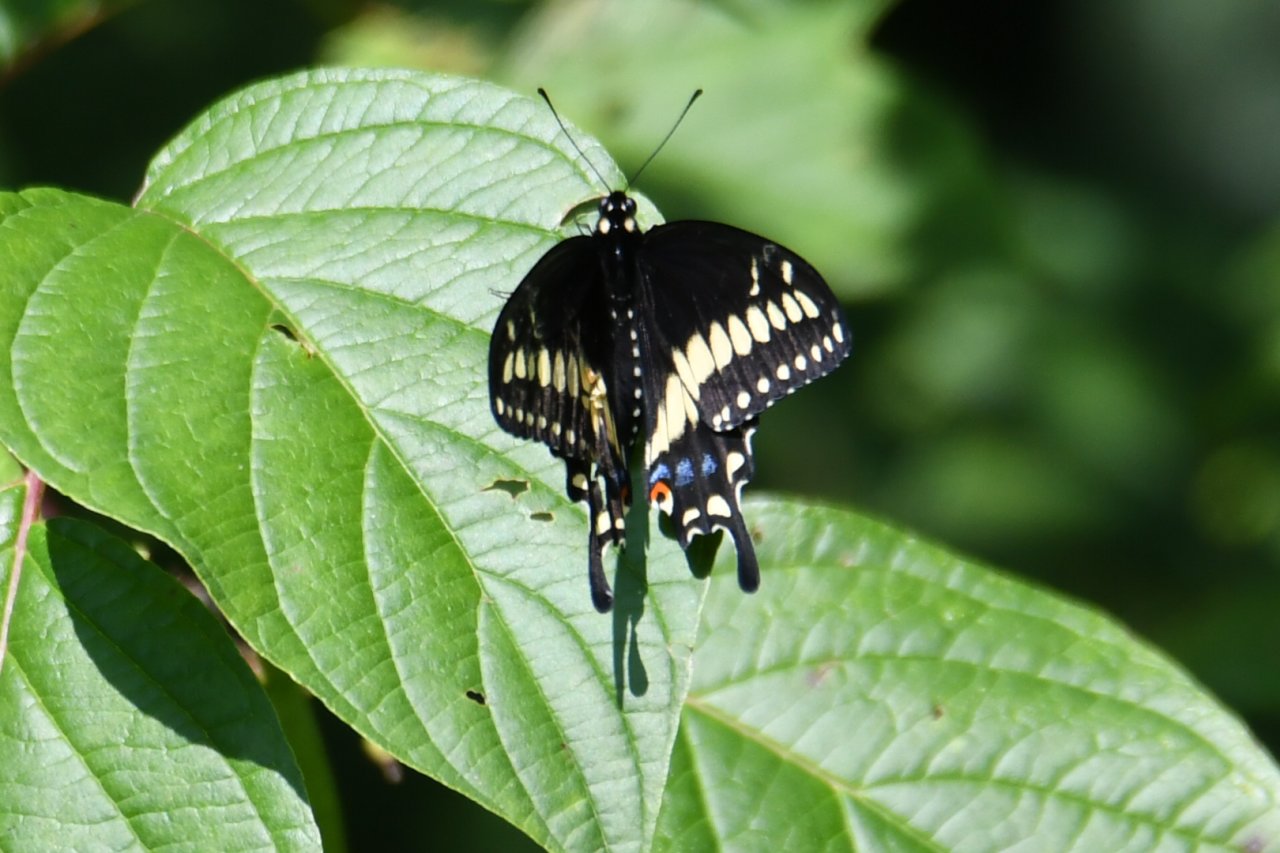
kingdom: Animalia
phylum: Arthropoda
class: Insecta
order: Lepidoptera
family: Papilionidae
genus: Papilio
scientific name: Papilio polyxenes
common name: Black Swallowtail
